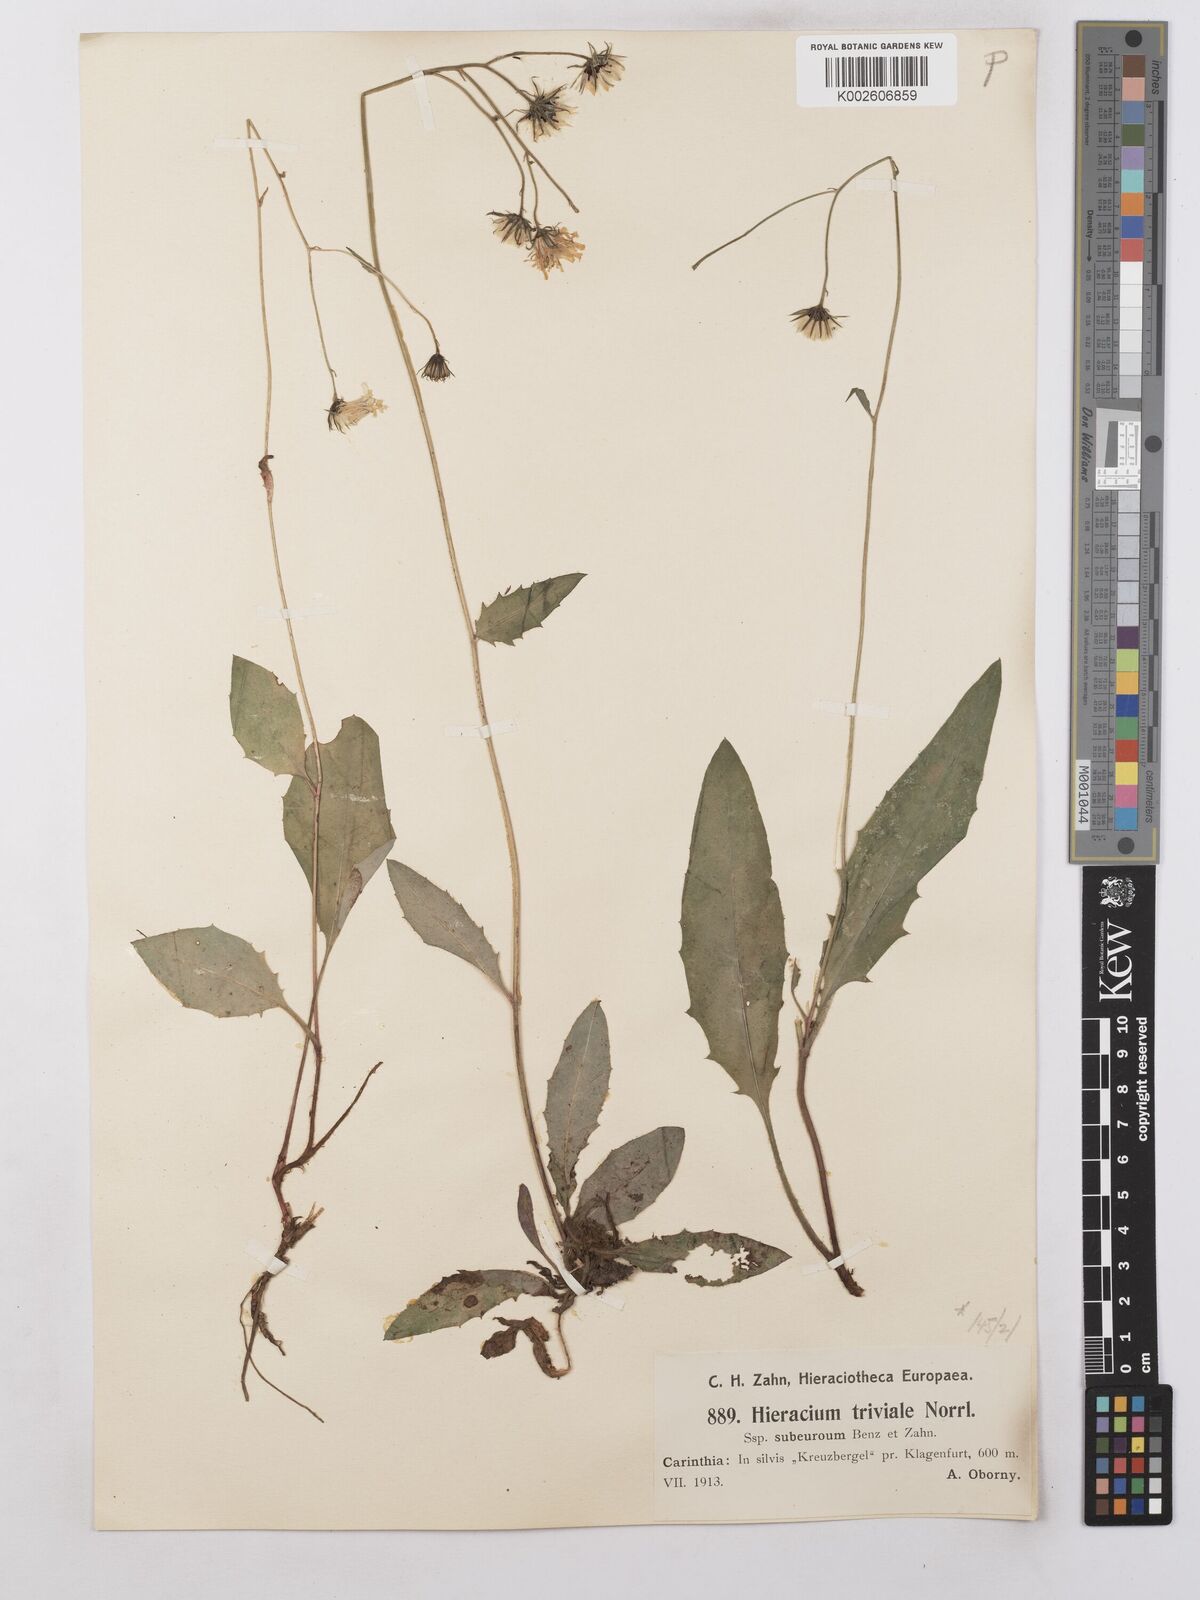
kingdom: Plantae
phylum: Tracheophyta
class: Magnoliopsida
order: Asterales
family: Asteraceae
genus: Hieracium
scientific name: Hieracium levicaule
